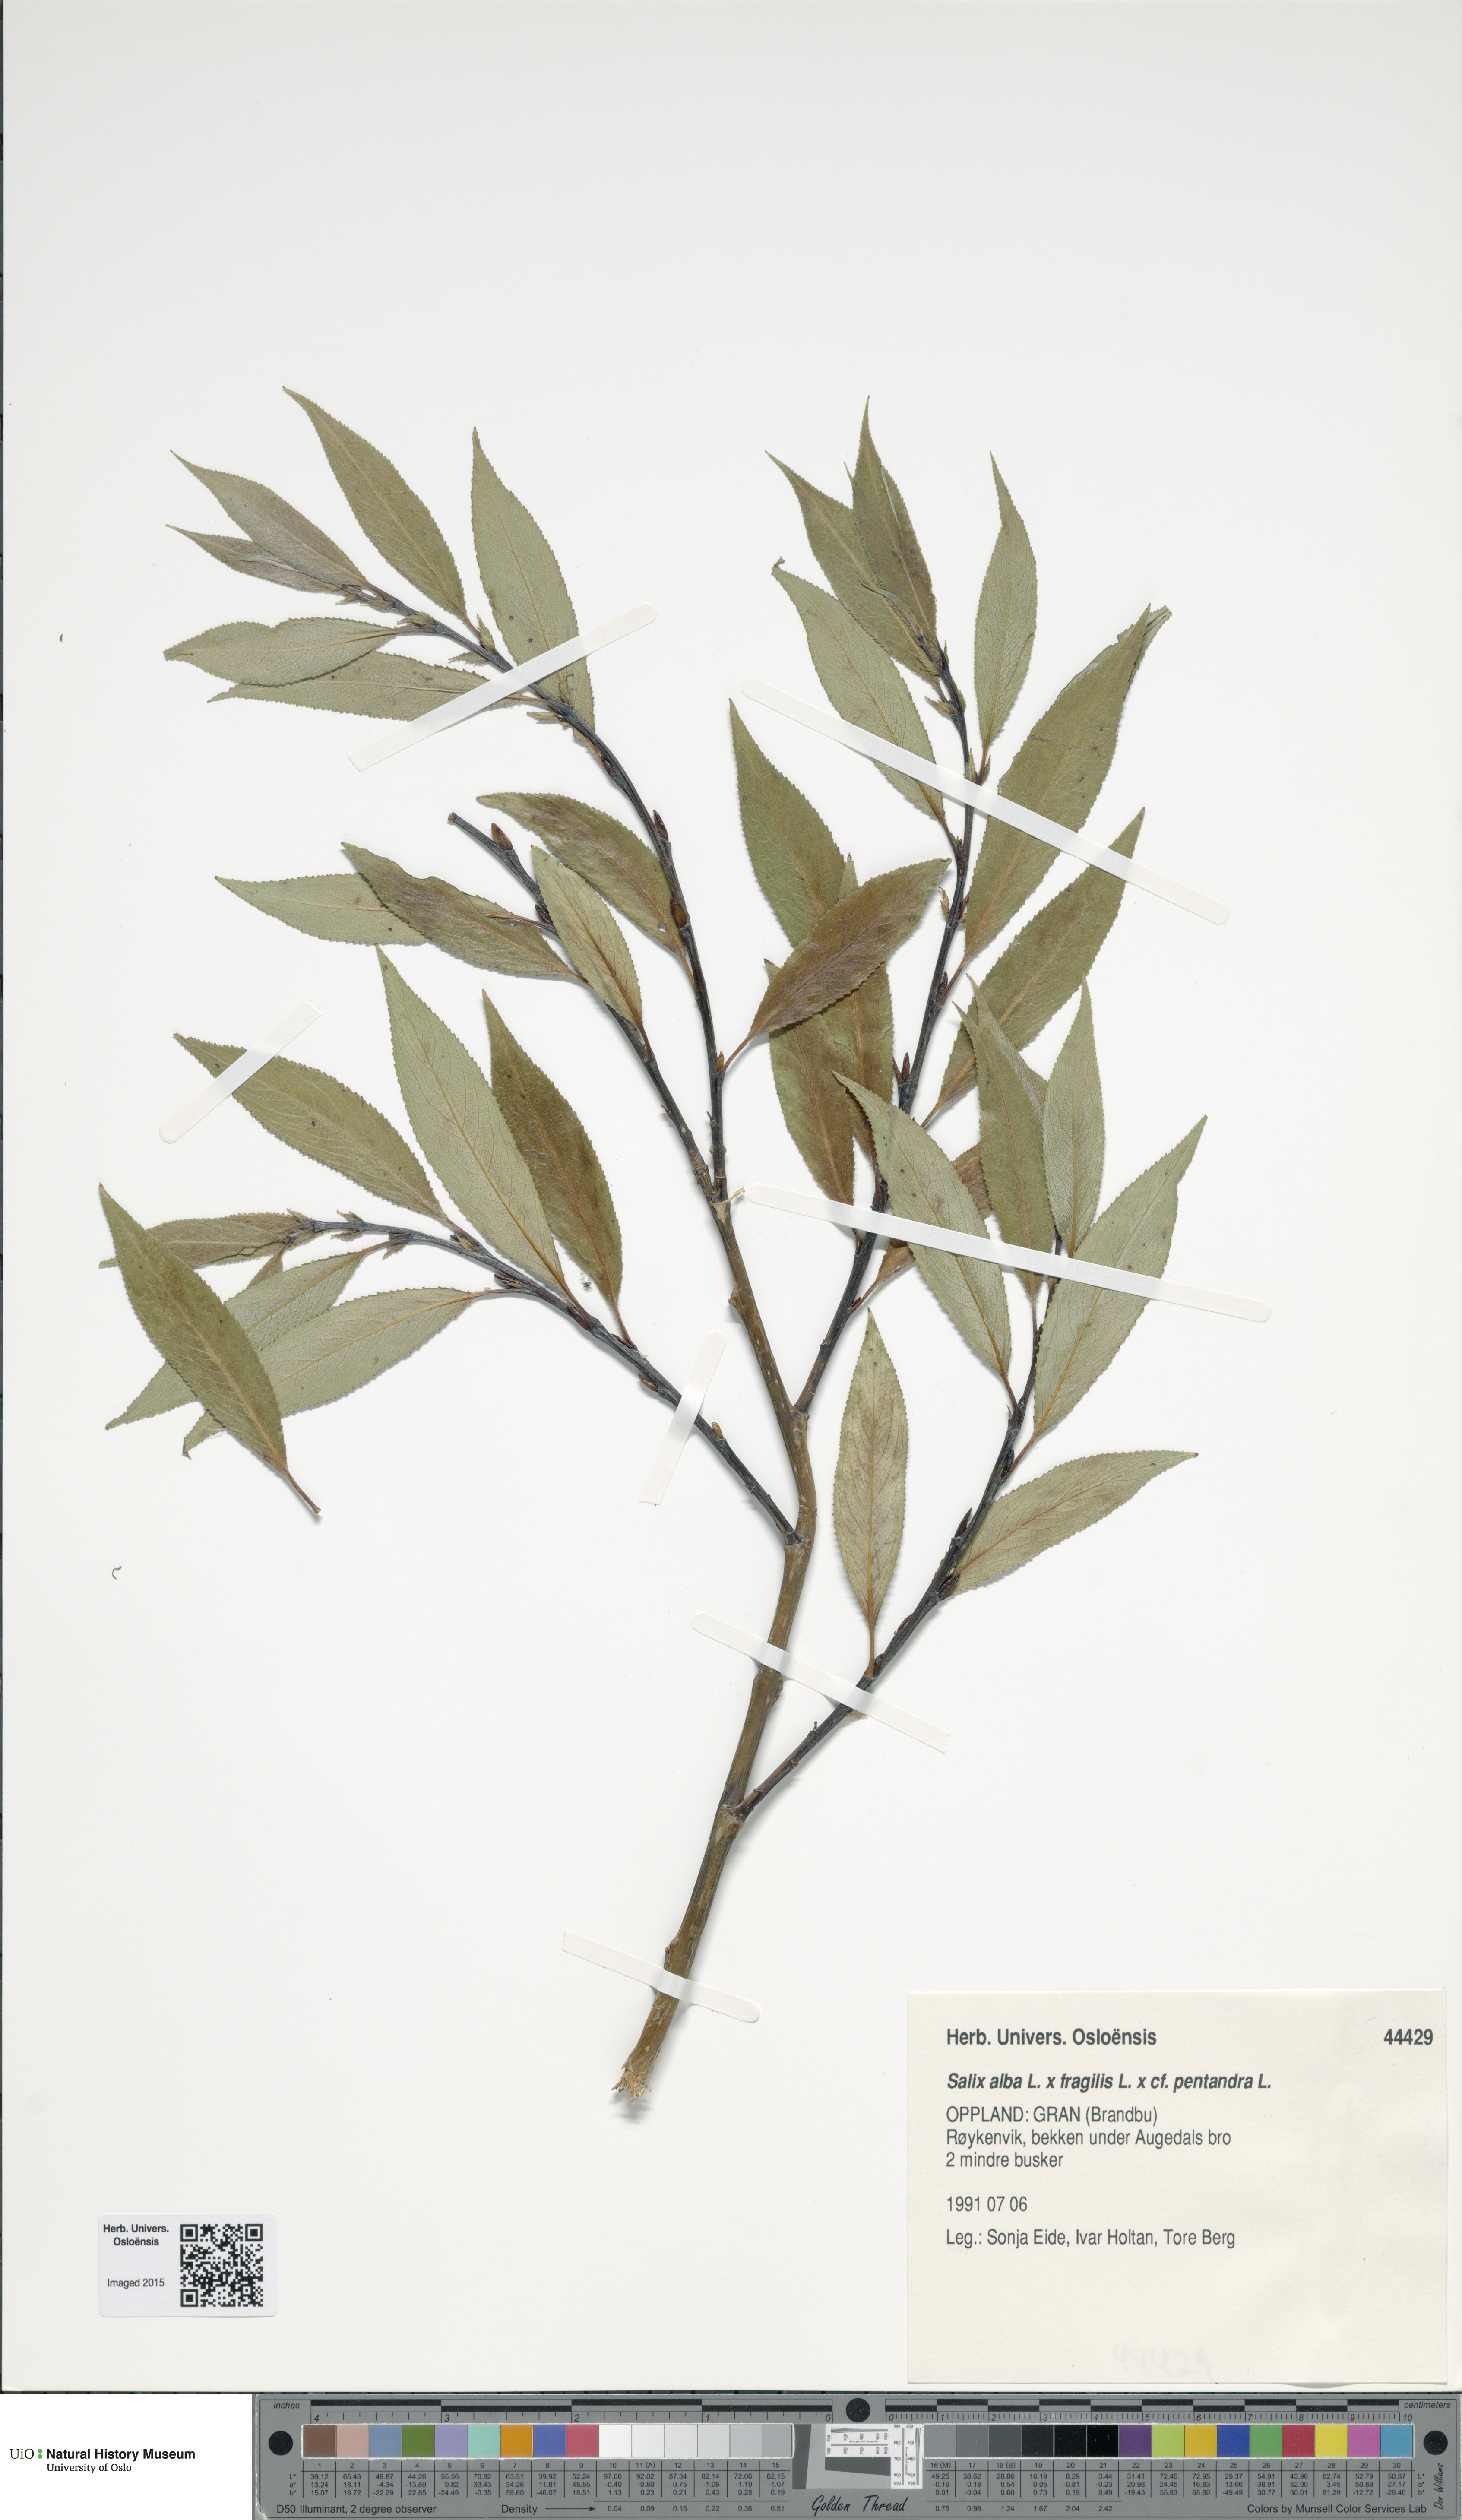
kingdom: Plantae
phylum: Tracheophyta
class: Magnoliopsida
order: Malpighiales
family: Salicaceae
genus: Salix
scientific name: Salix
